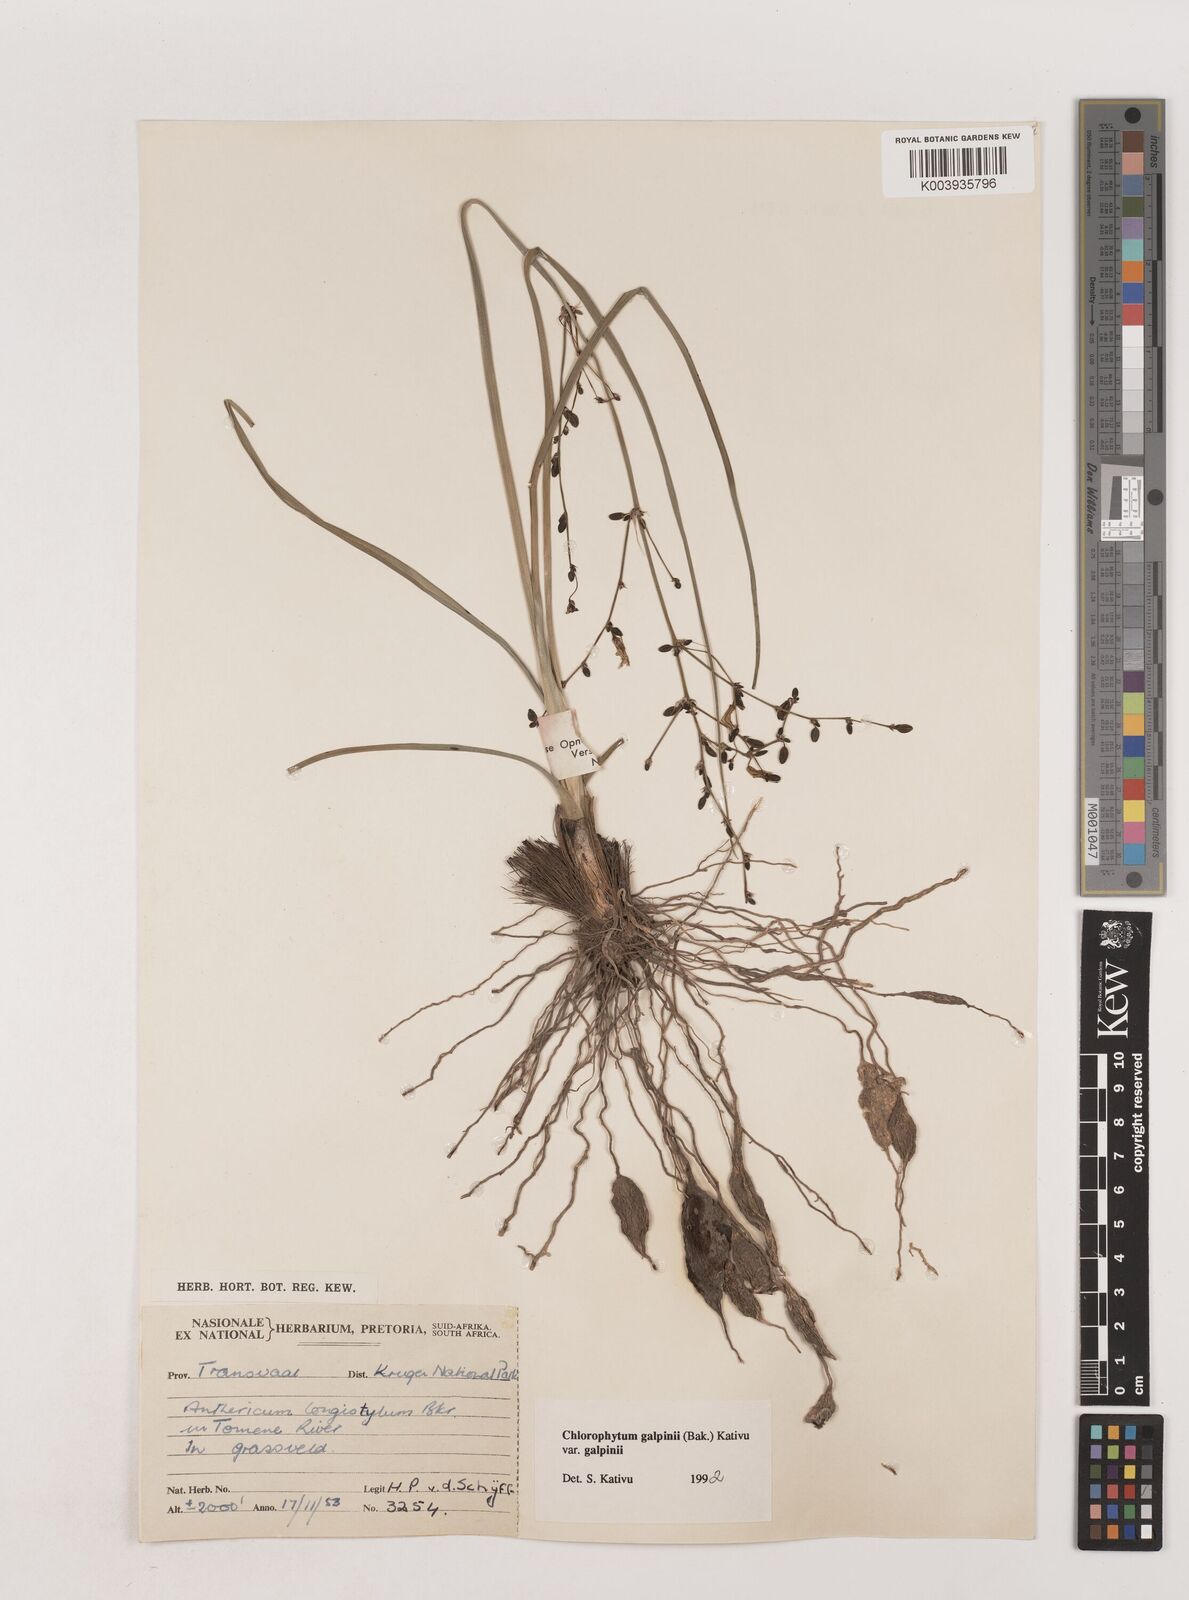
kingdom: Plantae
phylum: Tracheophyta
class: Liliopsida
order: Asparagales
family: Asparagaceae
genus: Chlorophytum
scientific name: Chlorophytum galpinii
